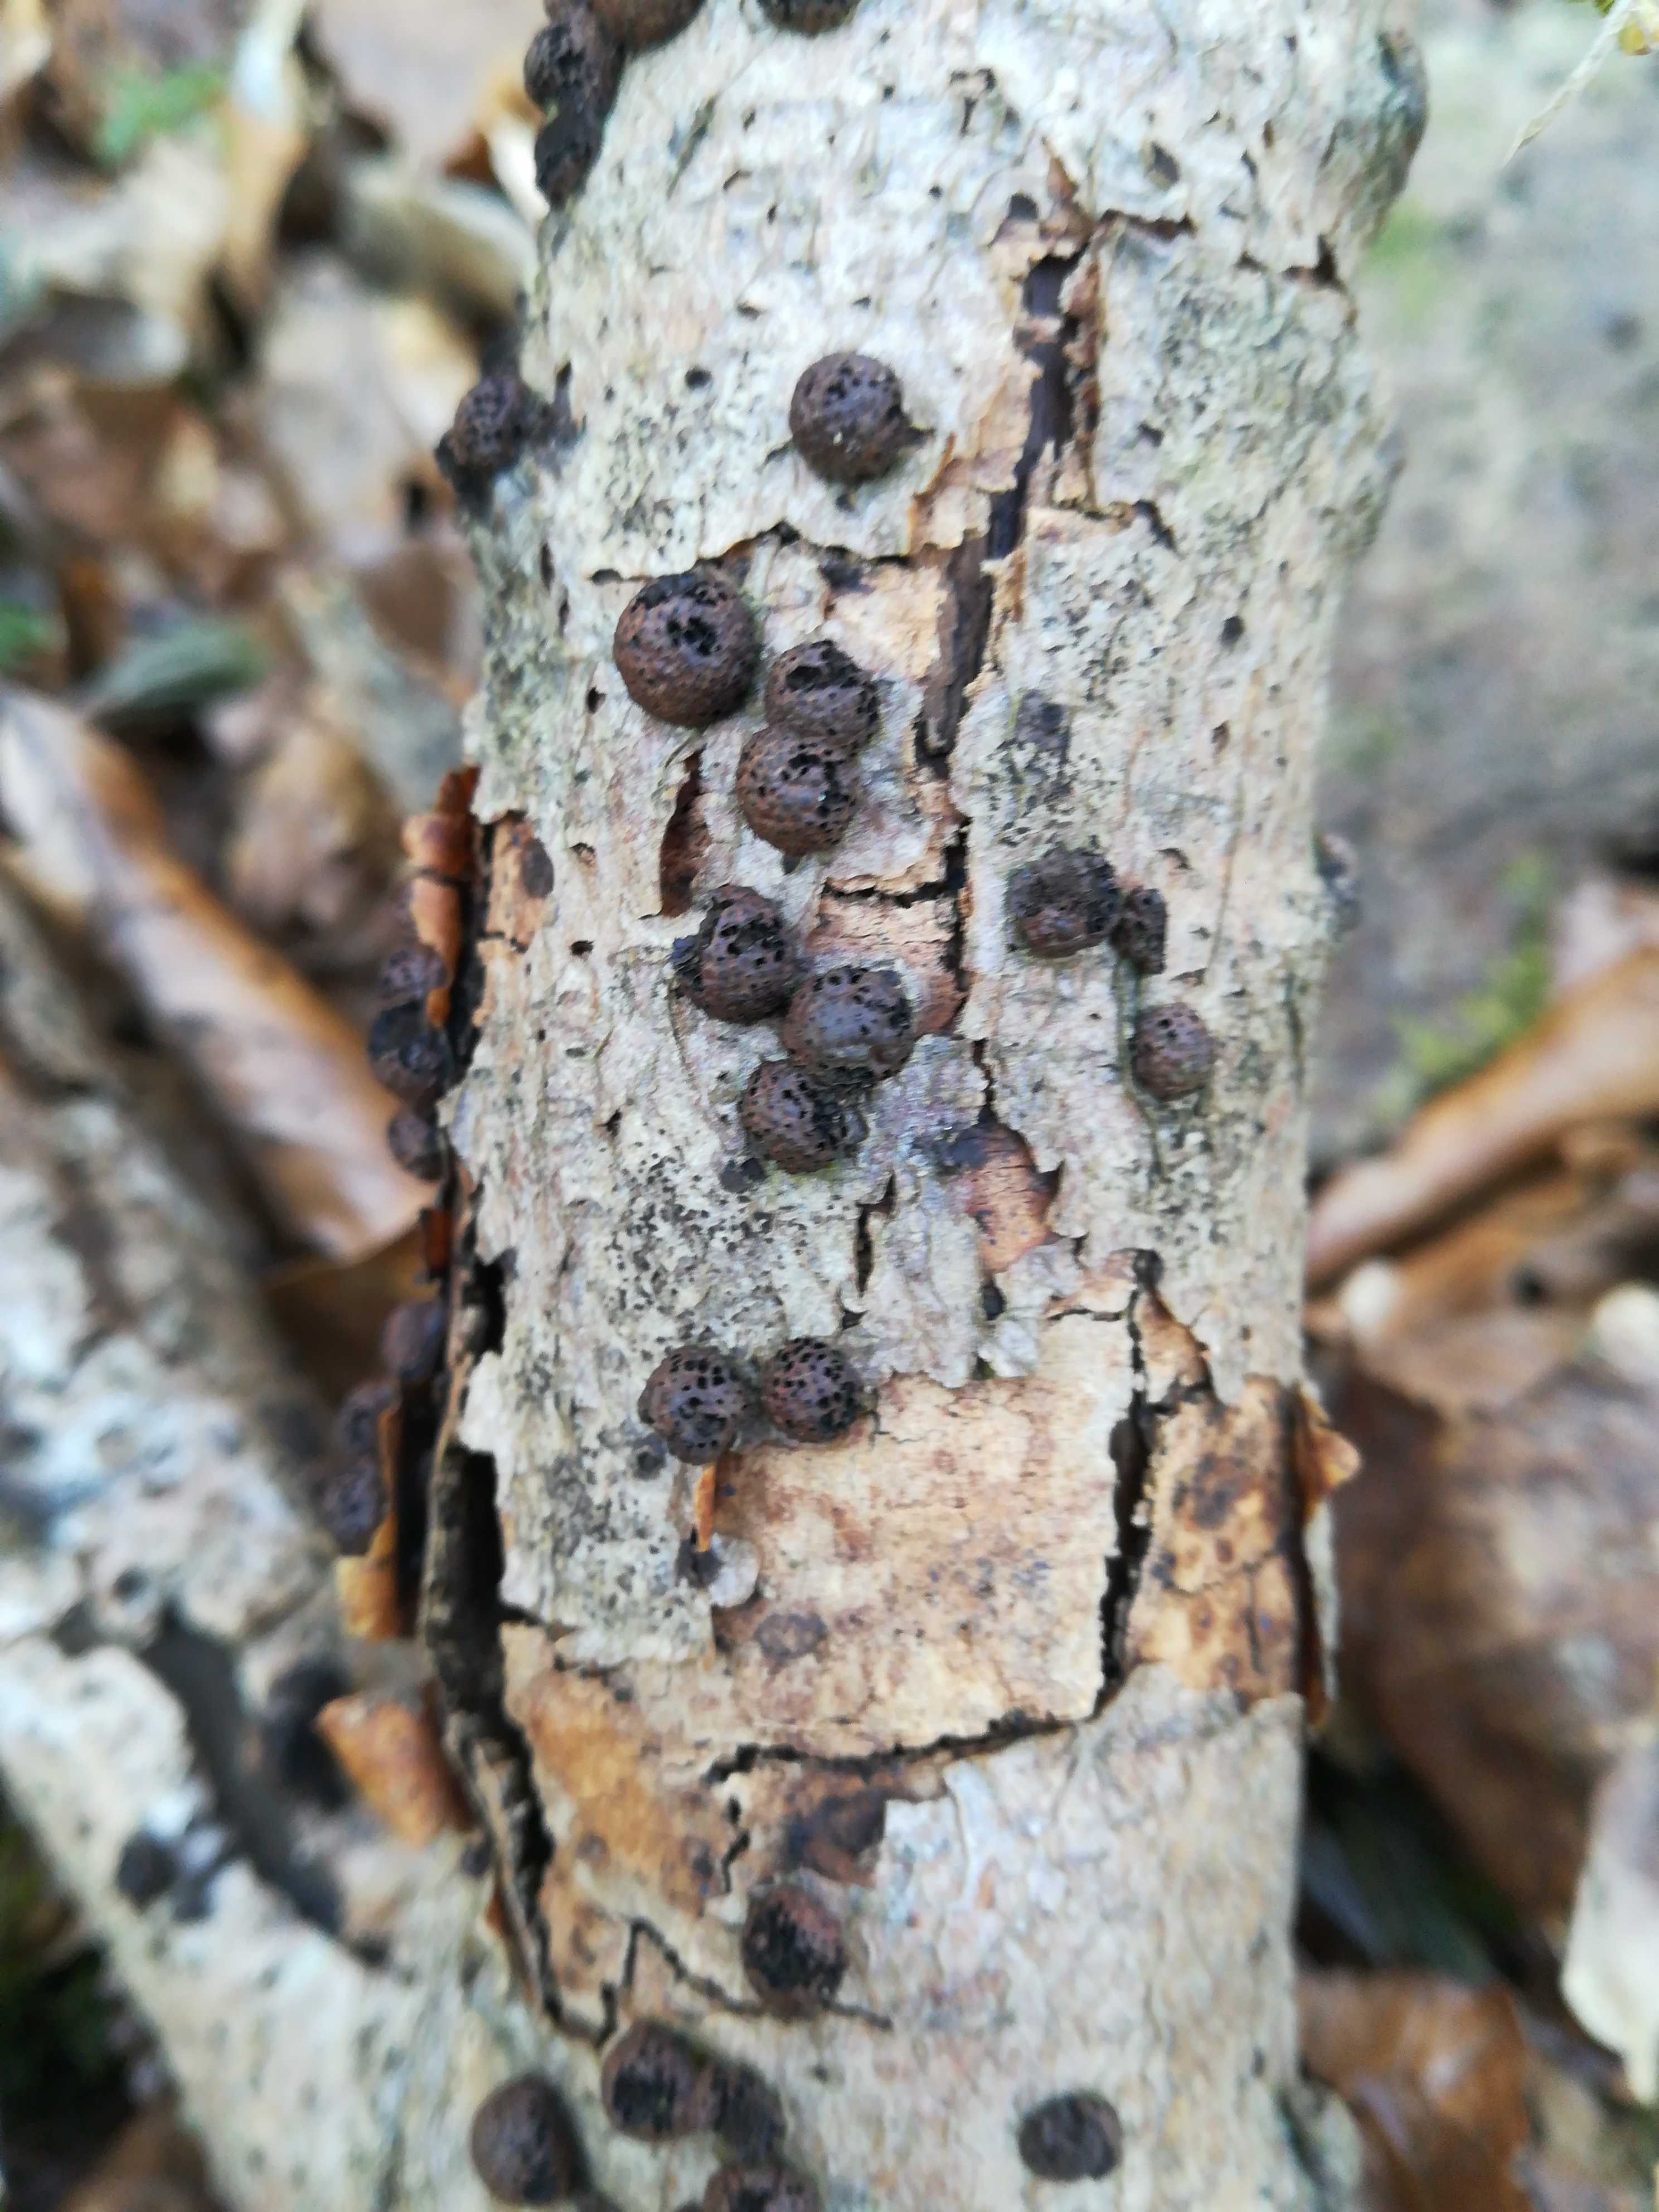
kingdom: Fungi
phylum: Ascomycota
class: Sordariomycetes
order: Xylariales
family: Hypoxylaceae
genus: Hypoxylon
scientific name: Hypoxylon fragiforme
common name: kuljordbær
